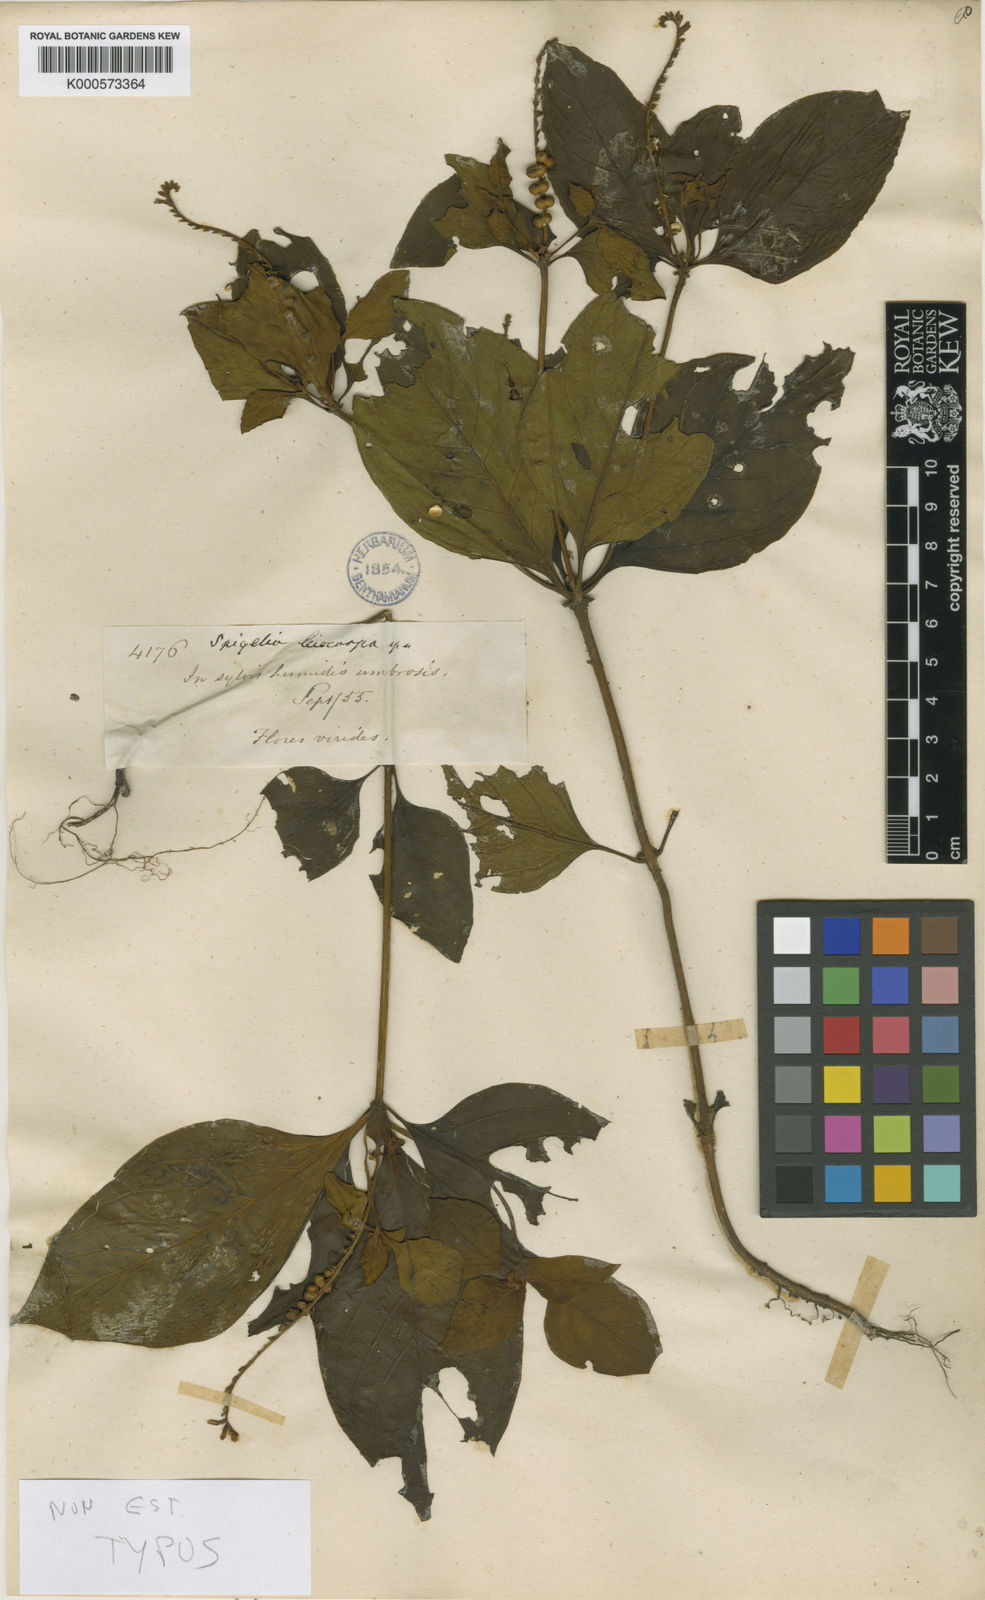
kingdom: Plantae
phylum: Tracheophyta
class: Magnoliopsida
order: Gentianales
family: Loganiaceae
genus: Spigelia
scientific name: Spigelia
